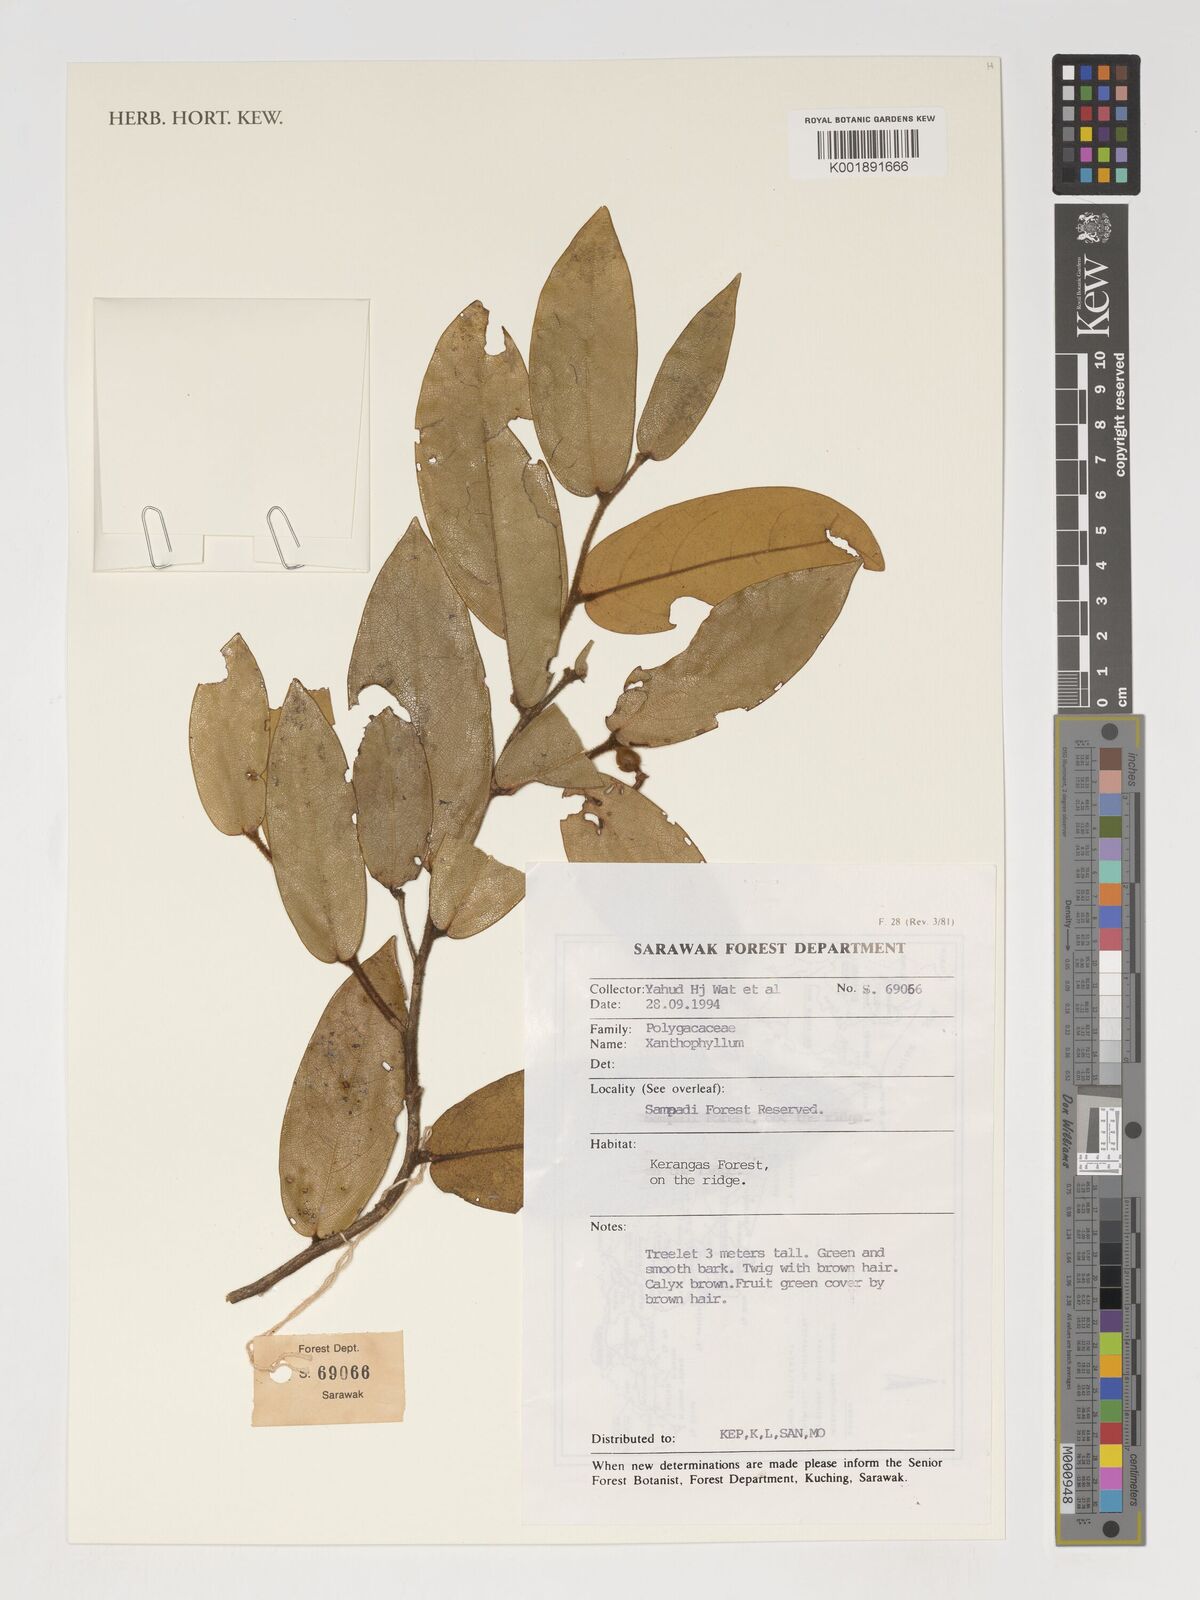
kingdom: Plantae
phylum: Tracheophyta
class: Magnoliopsida
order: Fabales
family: Polygalaceae
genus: Xanthophyllum
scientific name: Xanthophyllum
